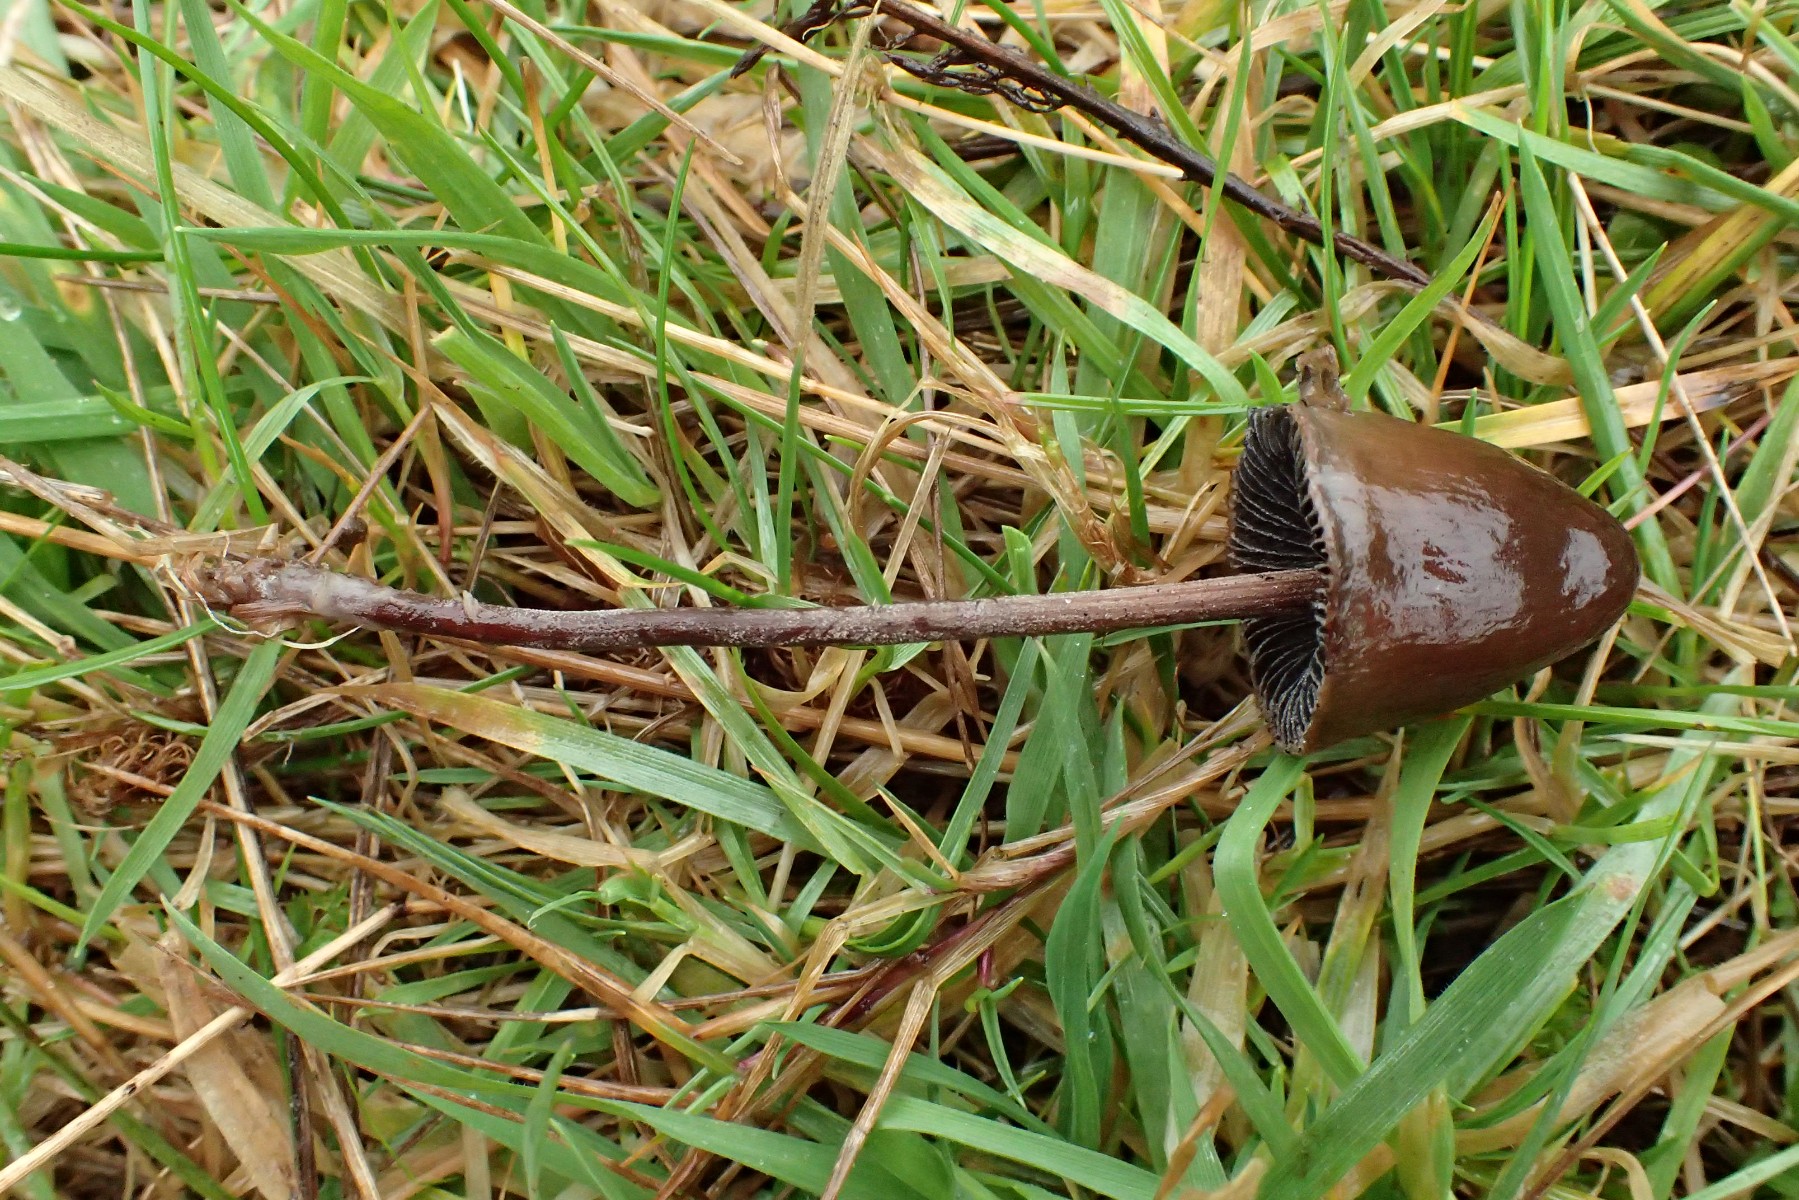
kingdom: Fungi
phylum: Basidiomycota
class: Agaricomycetes
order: Agaricales
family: Bolbitiaceae
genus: Panaeolus
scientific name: Panaeolus acuminatus
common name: høj glanshat
